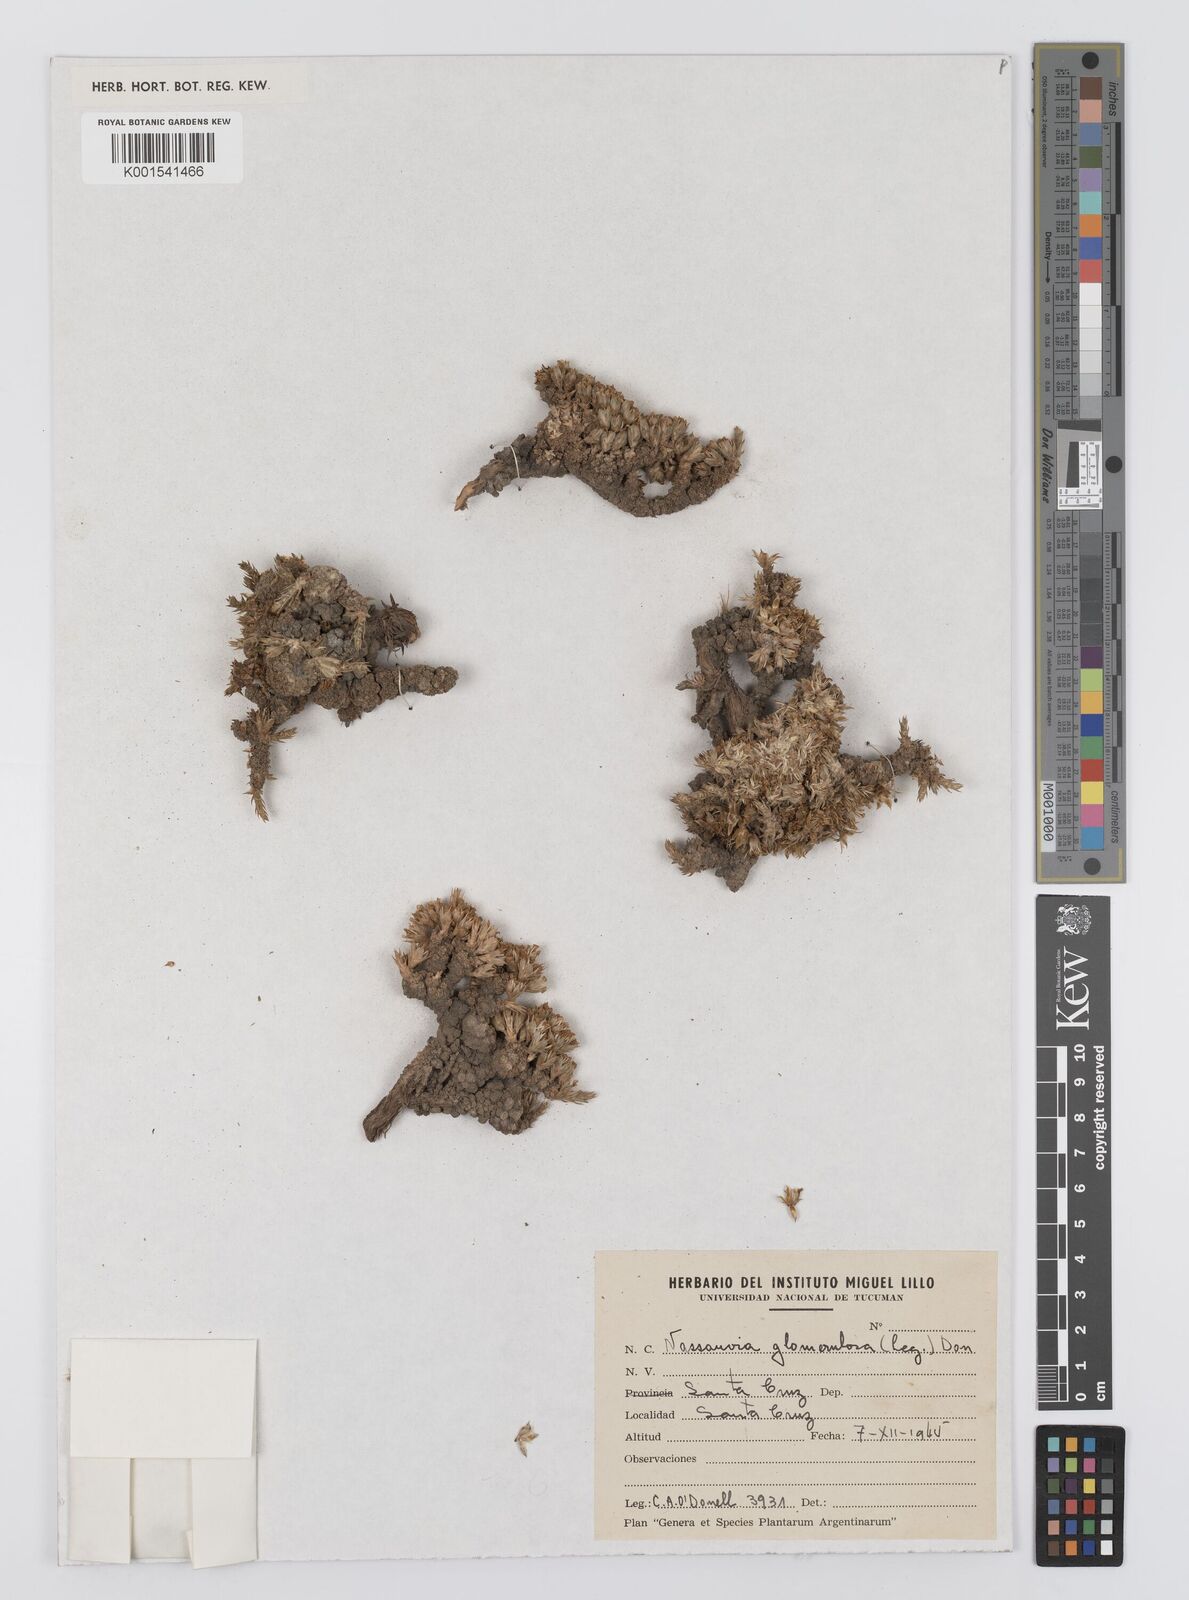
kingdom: Plantae
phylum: Tracheophyta
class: Magnoliopsida
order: Asterales
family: Asteraceae
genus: Nassauvia
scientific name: Nassauvia glomerulosa
